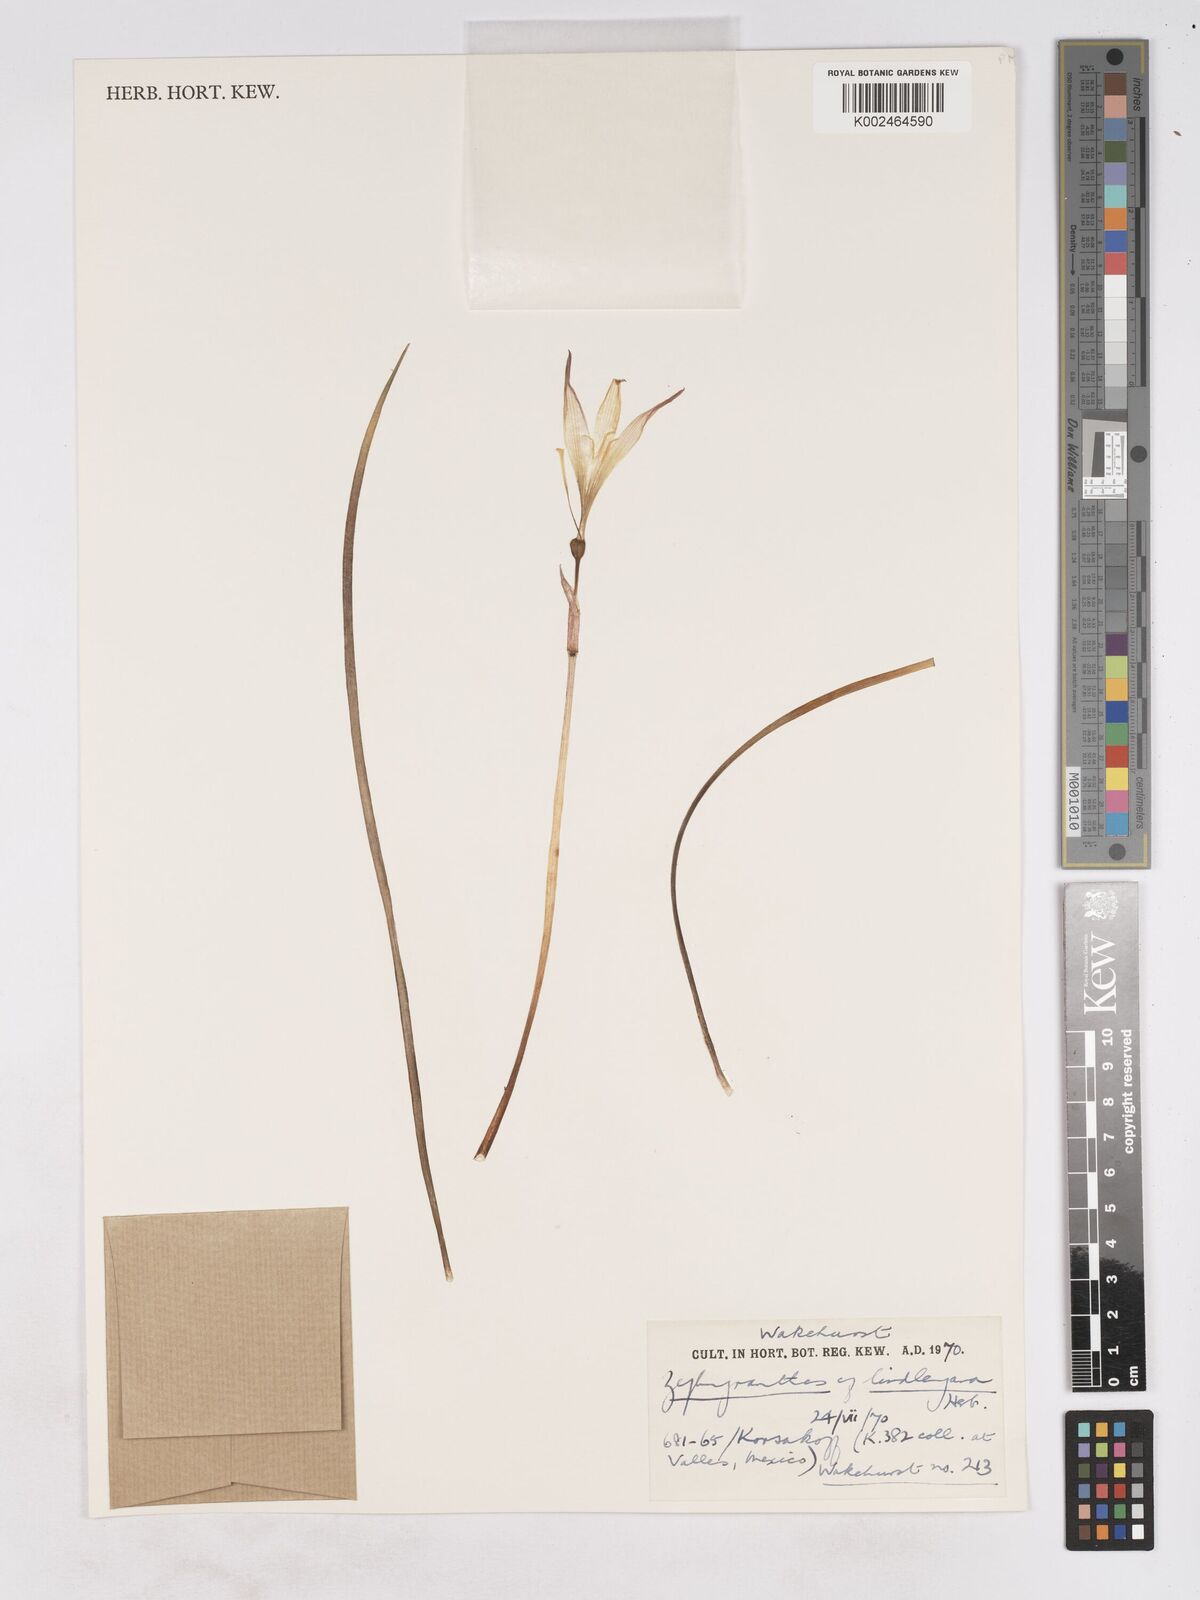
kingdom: Plantae
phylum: Tracheophyta
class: Liliopsida
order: Asparagales
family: Amaryllidaceae
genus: Zephyranthes
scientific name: Zephyranthes lindleyana
